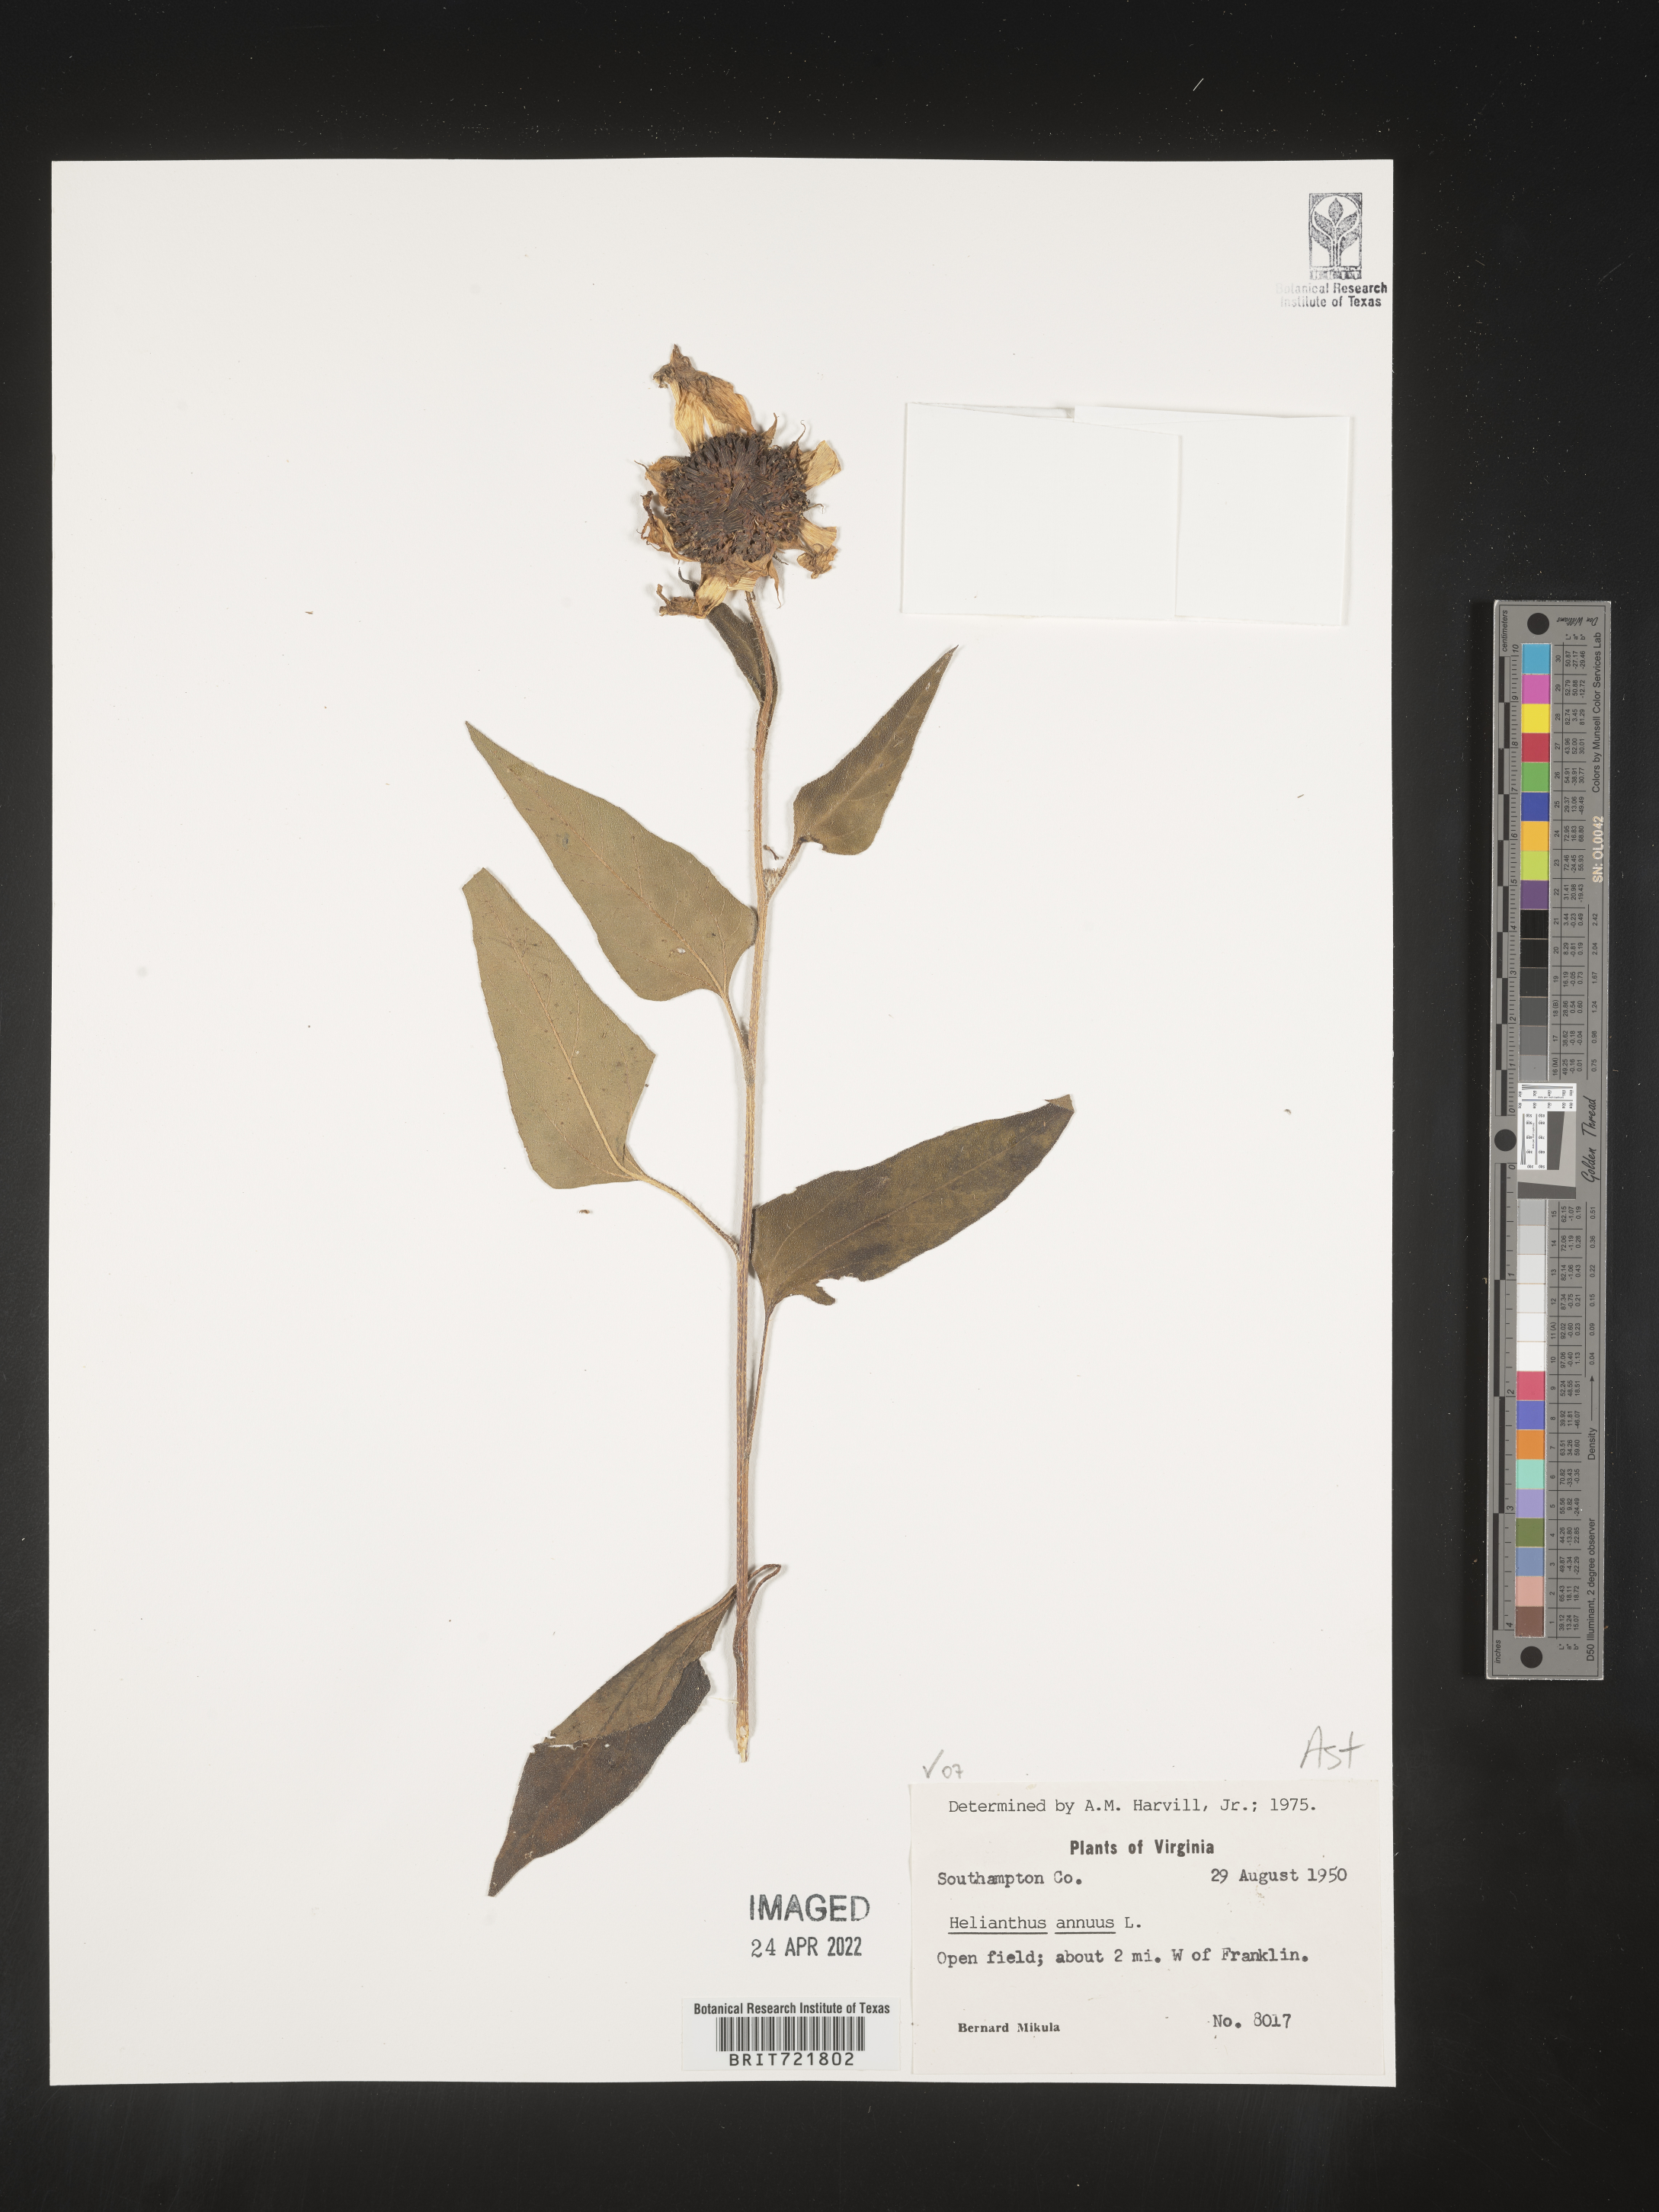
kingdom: Plantae
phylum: Tracheophyta
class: Magnoliopsida
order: Asterales
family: Asteraceae
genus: Helianthus
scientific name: Helianthus annuus
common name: Sunflower
